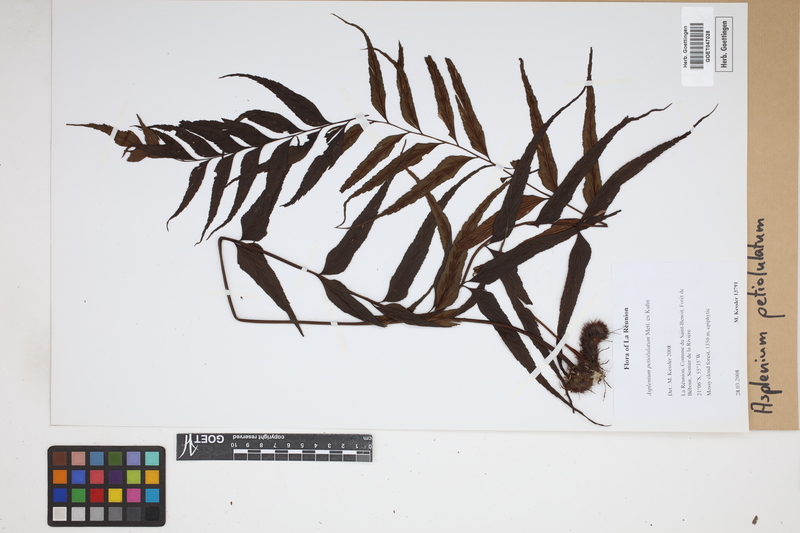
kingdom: Plantae
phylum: Tracheophyta
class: Polypodiopsida
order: Polypodiales
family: Aspleniaceae
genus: Asplenium
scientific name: Asplenium petiolulatum
